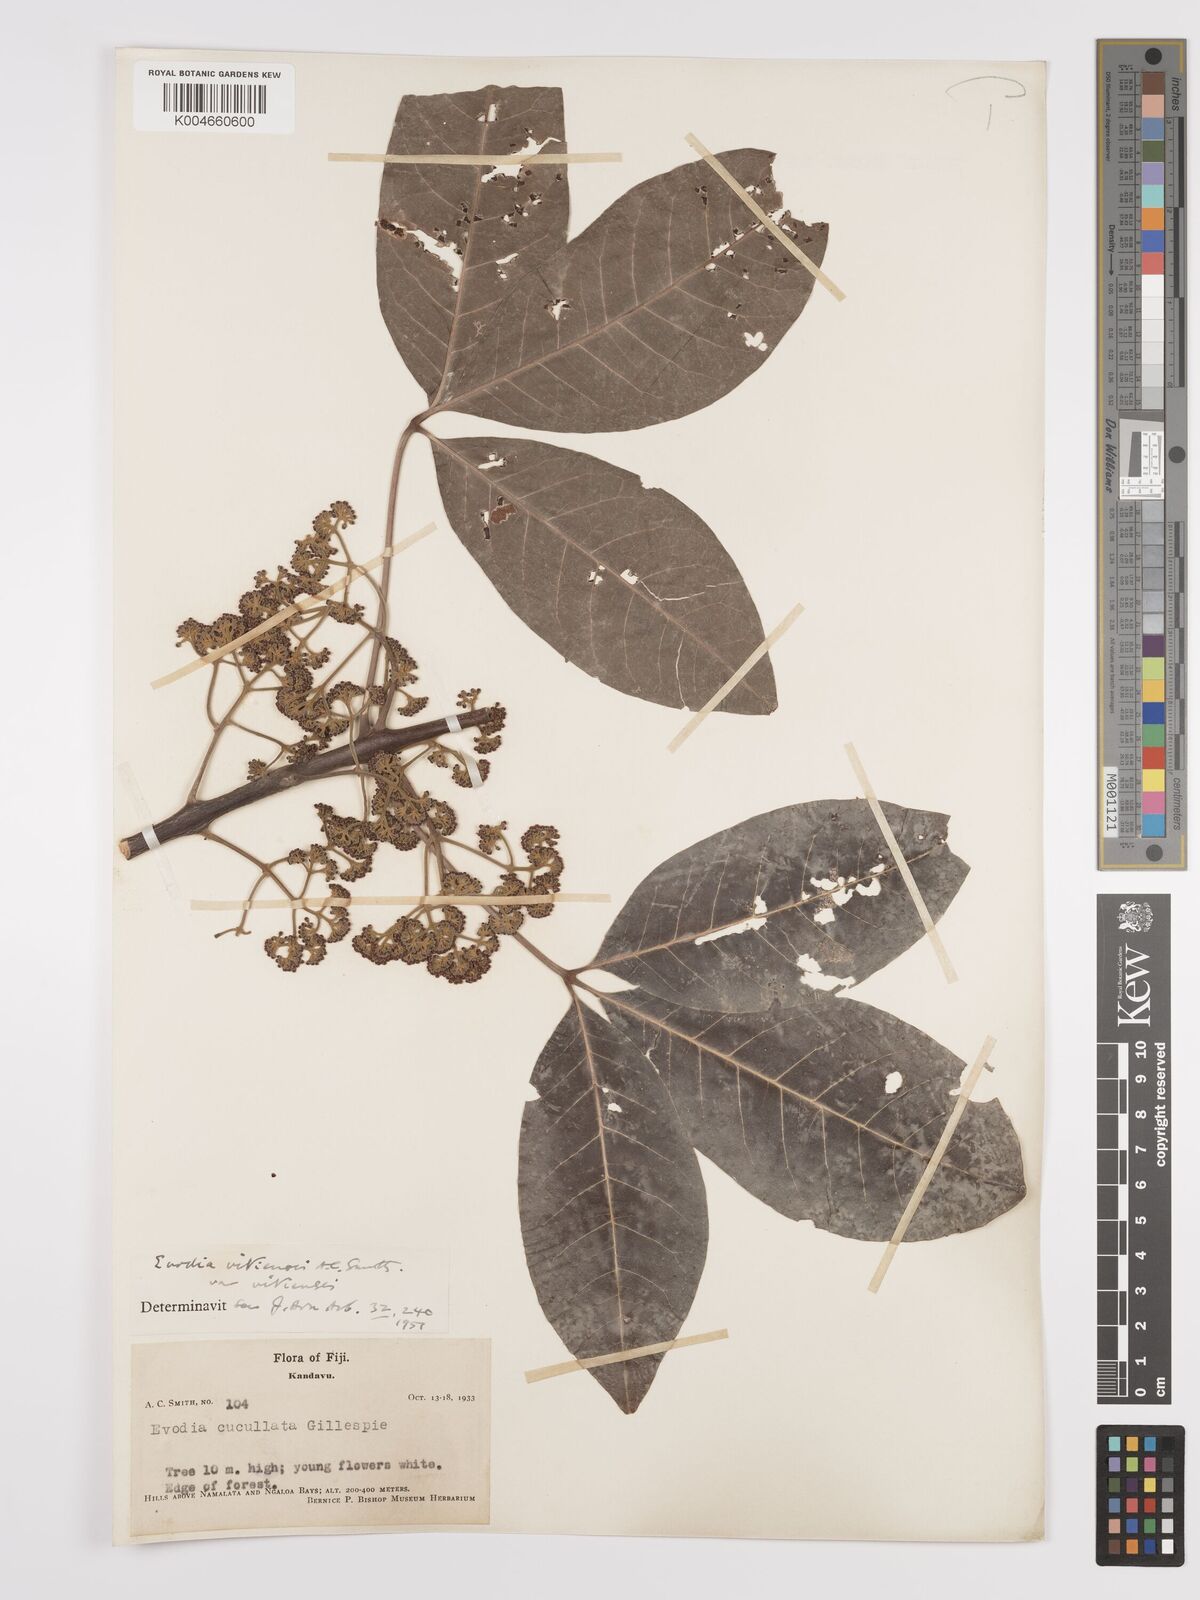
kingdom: Plantae
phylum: Tracheophyta
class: Magnoliopsida
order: Sapindales
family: Rutaceae
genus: Melicope
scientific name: Melicope cucullata
